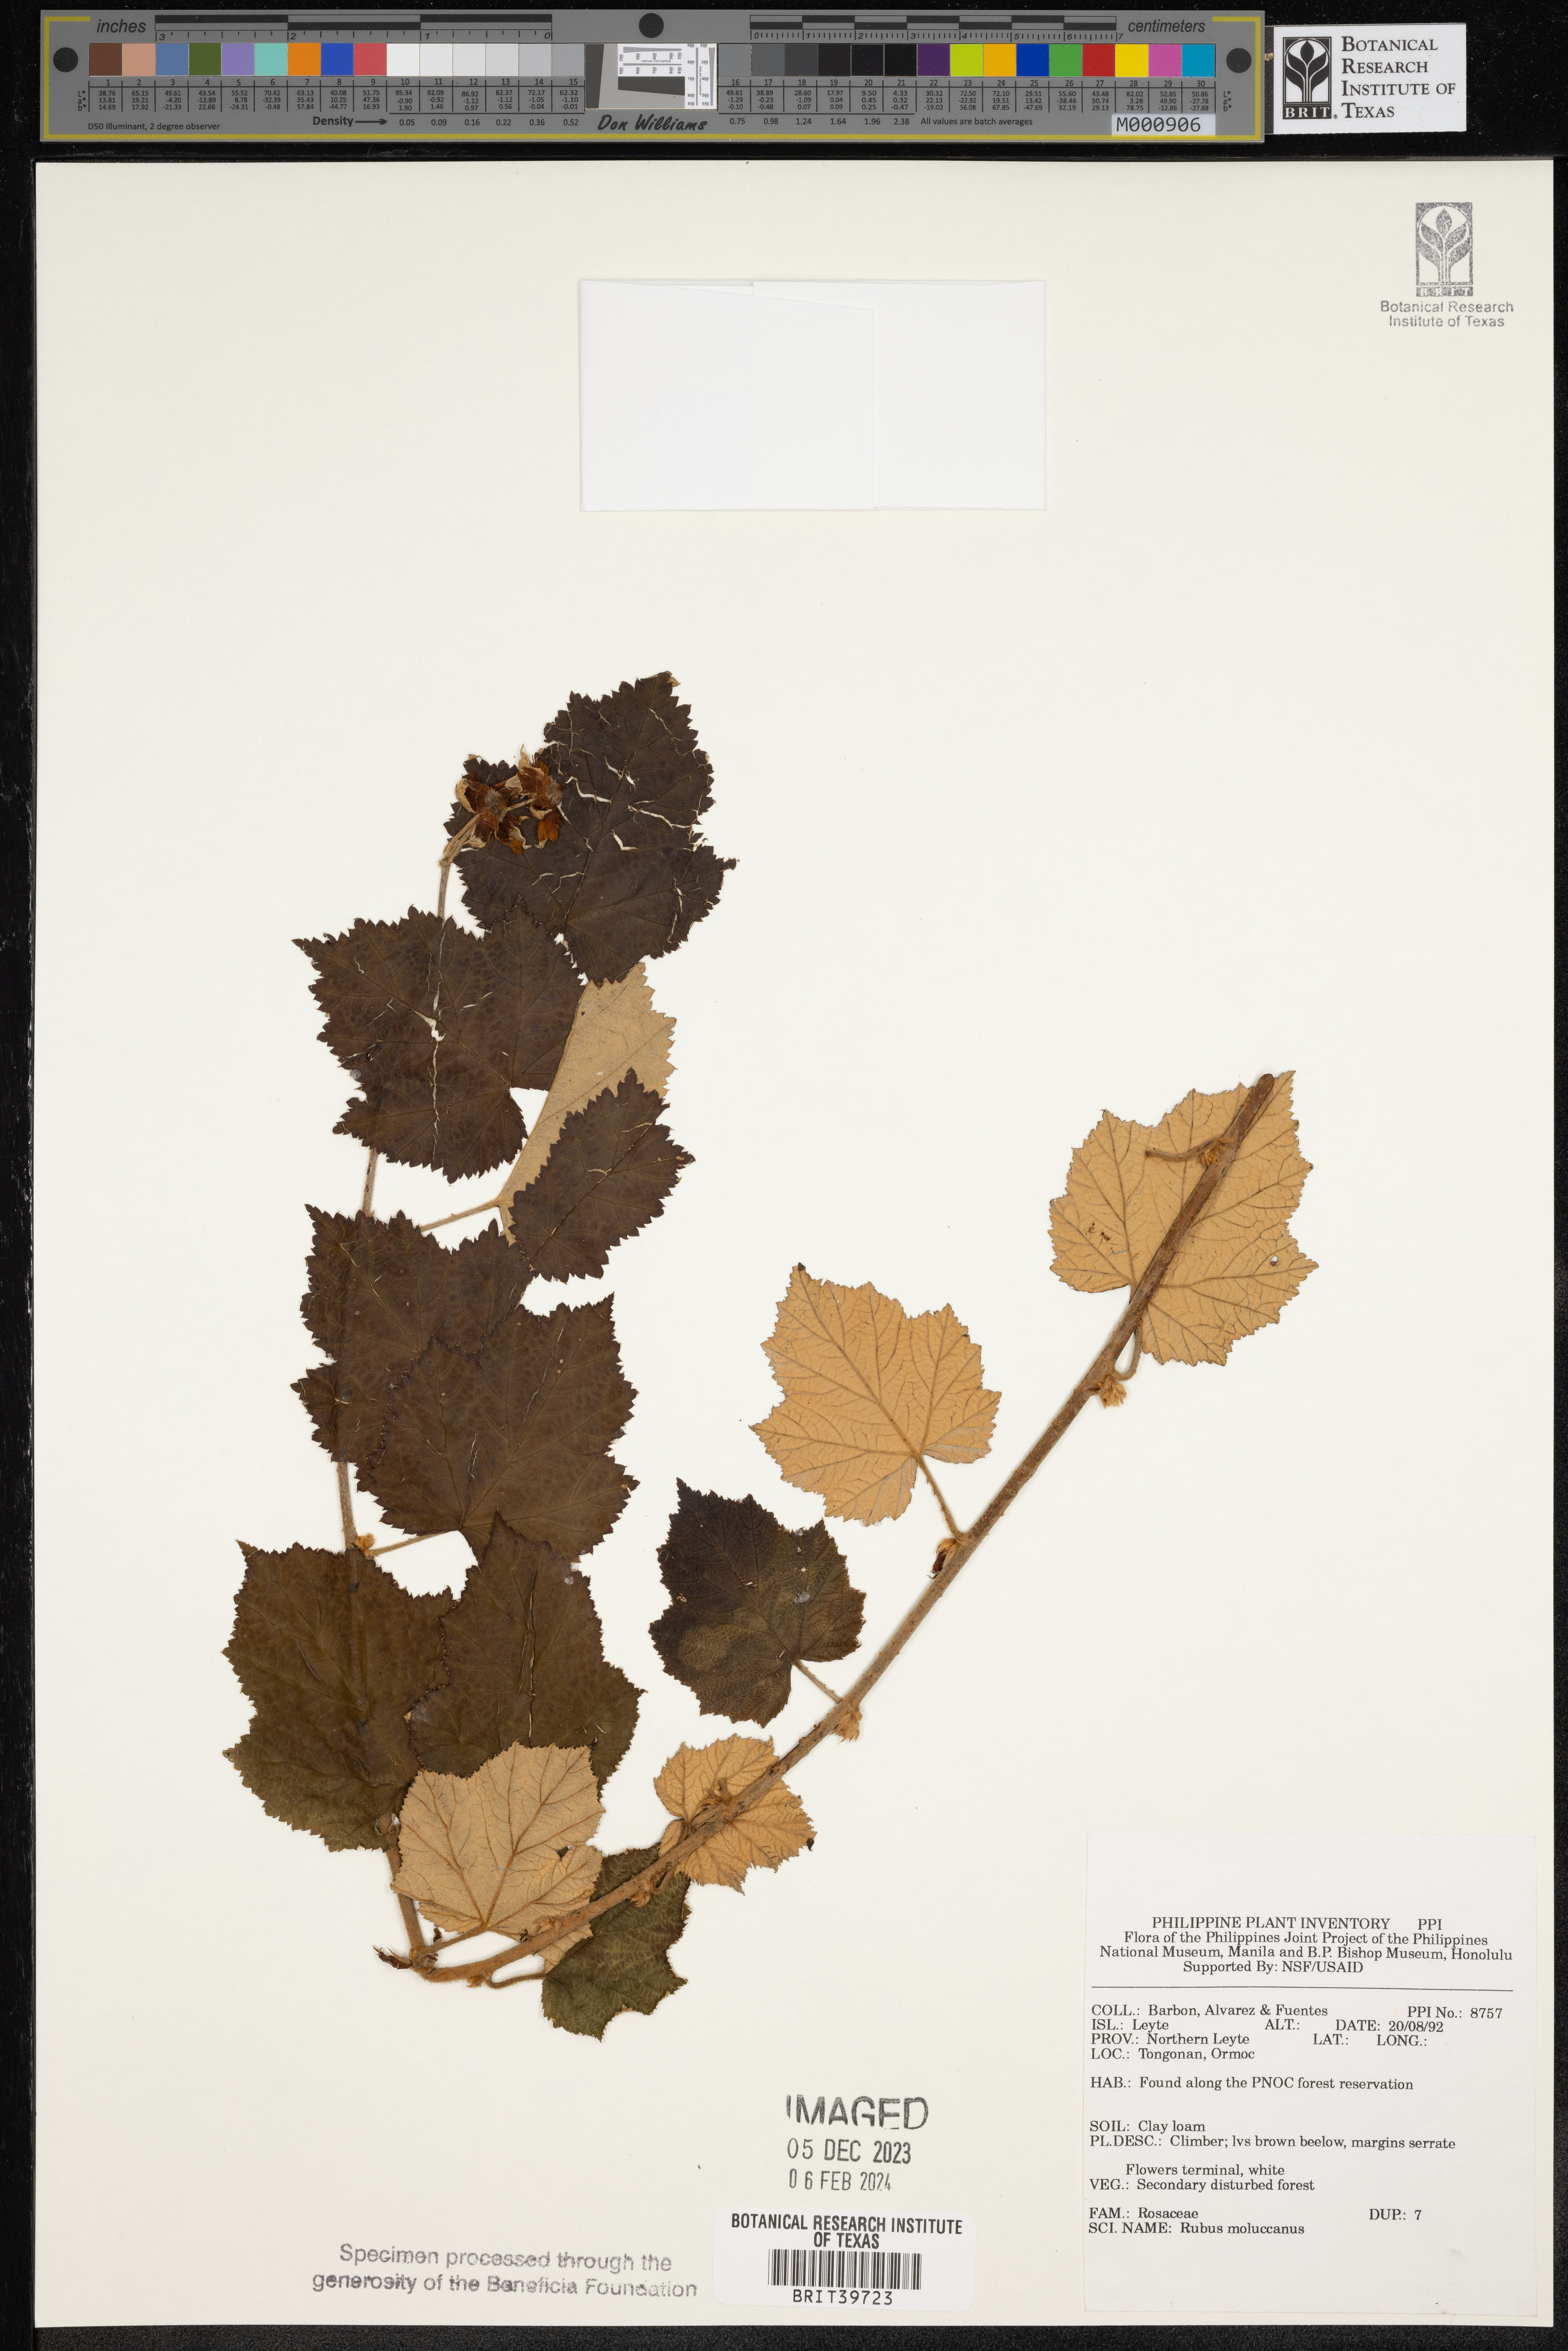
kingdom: Plantae
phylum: Tracheophyta
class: Magnoliopsida
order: Rosales
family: Rosaceae
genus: Rubus
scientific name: Rubus moluccanus
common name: Wild raspberry
